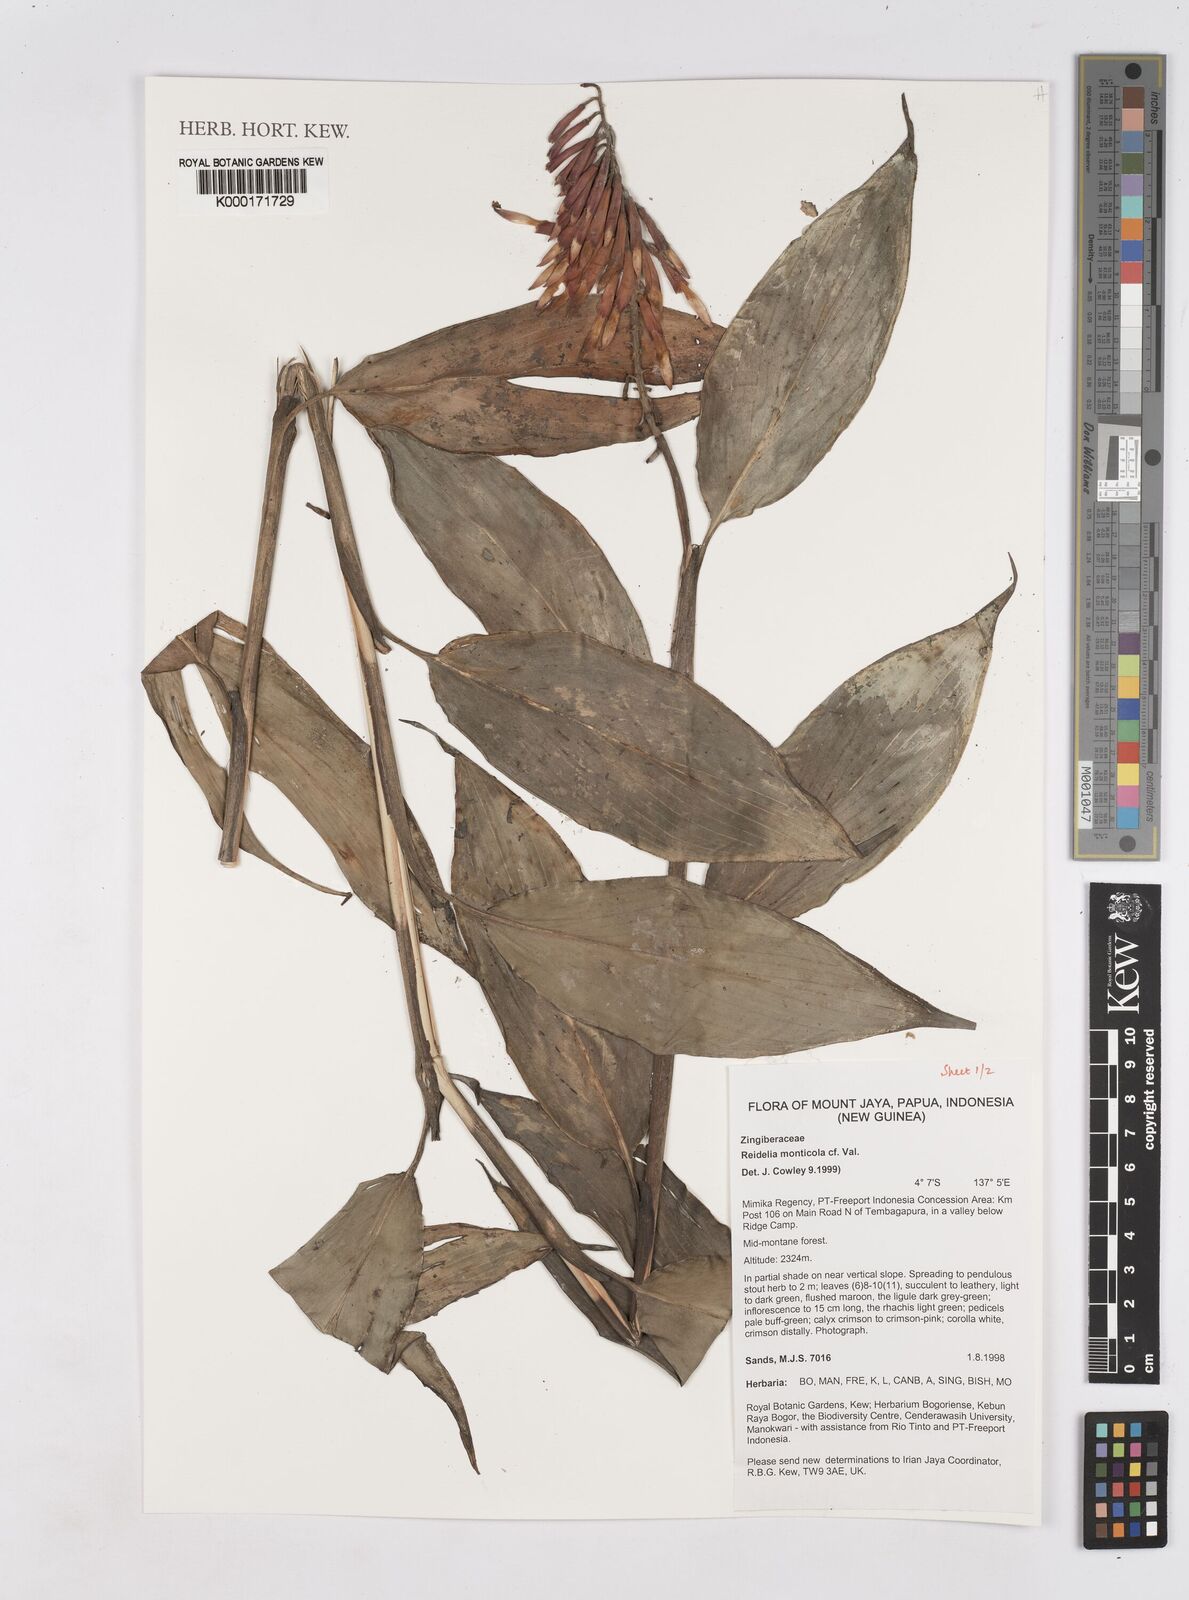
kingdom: Plantae
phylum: Tracheophyta
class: Liliopsida
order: Zingiberales
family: Zingiberaceae
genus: Riedelia
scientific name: Riedelia monticola
